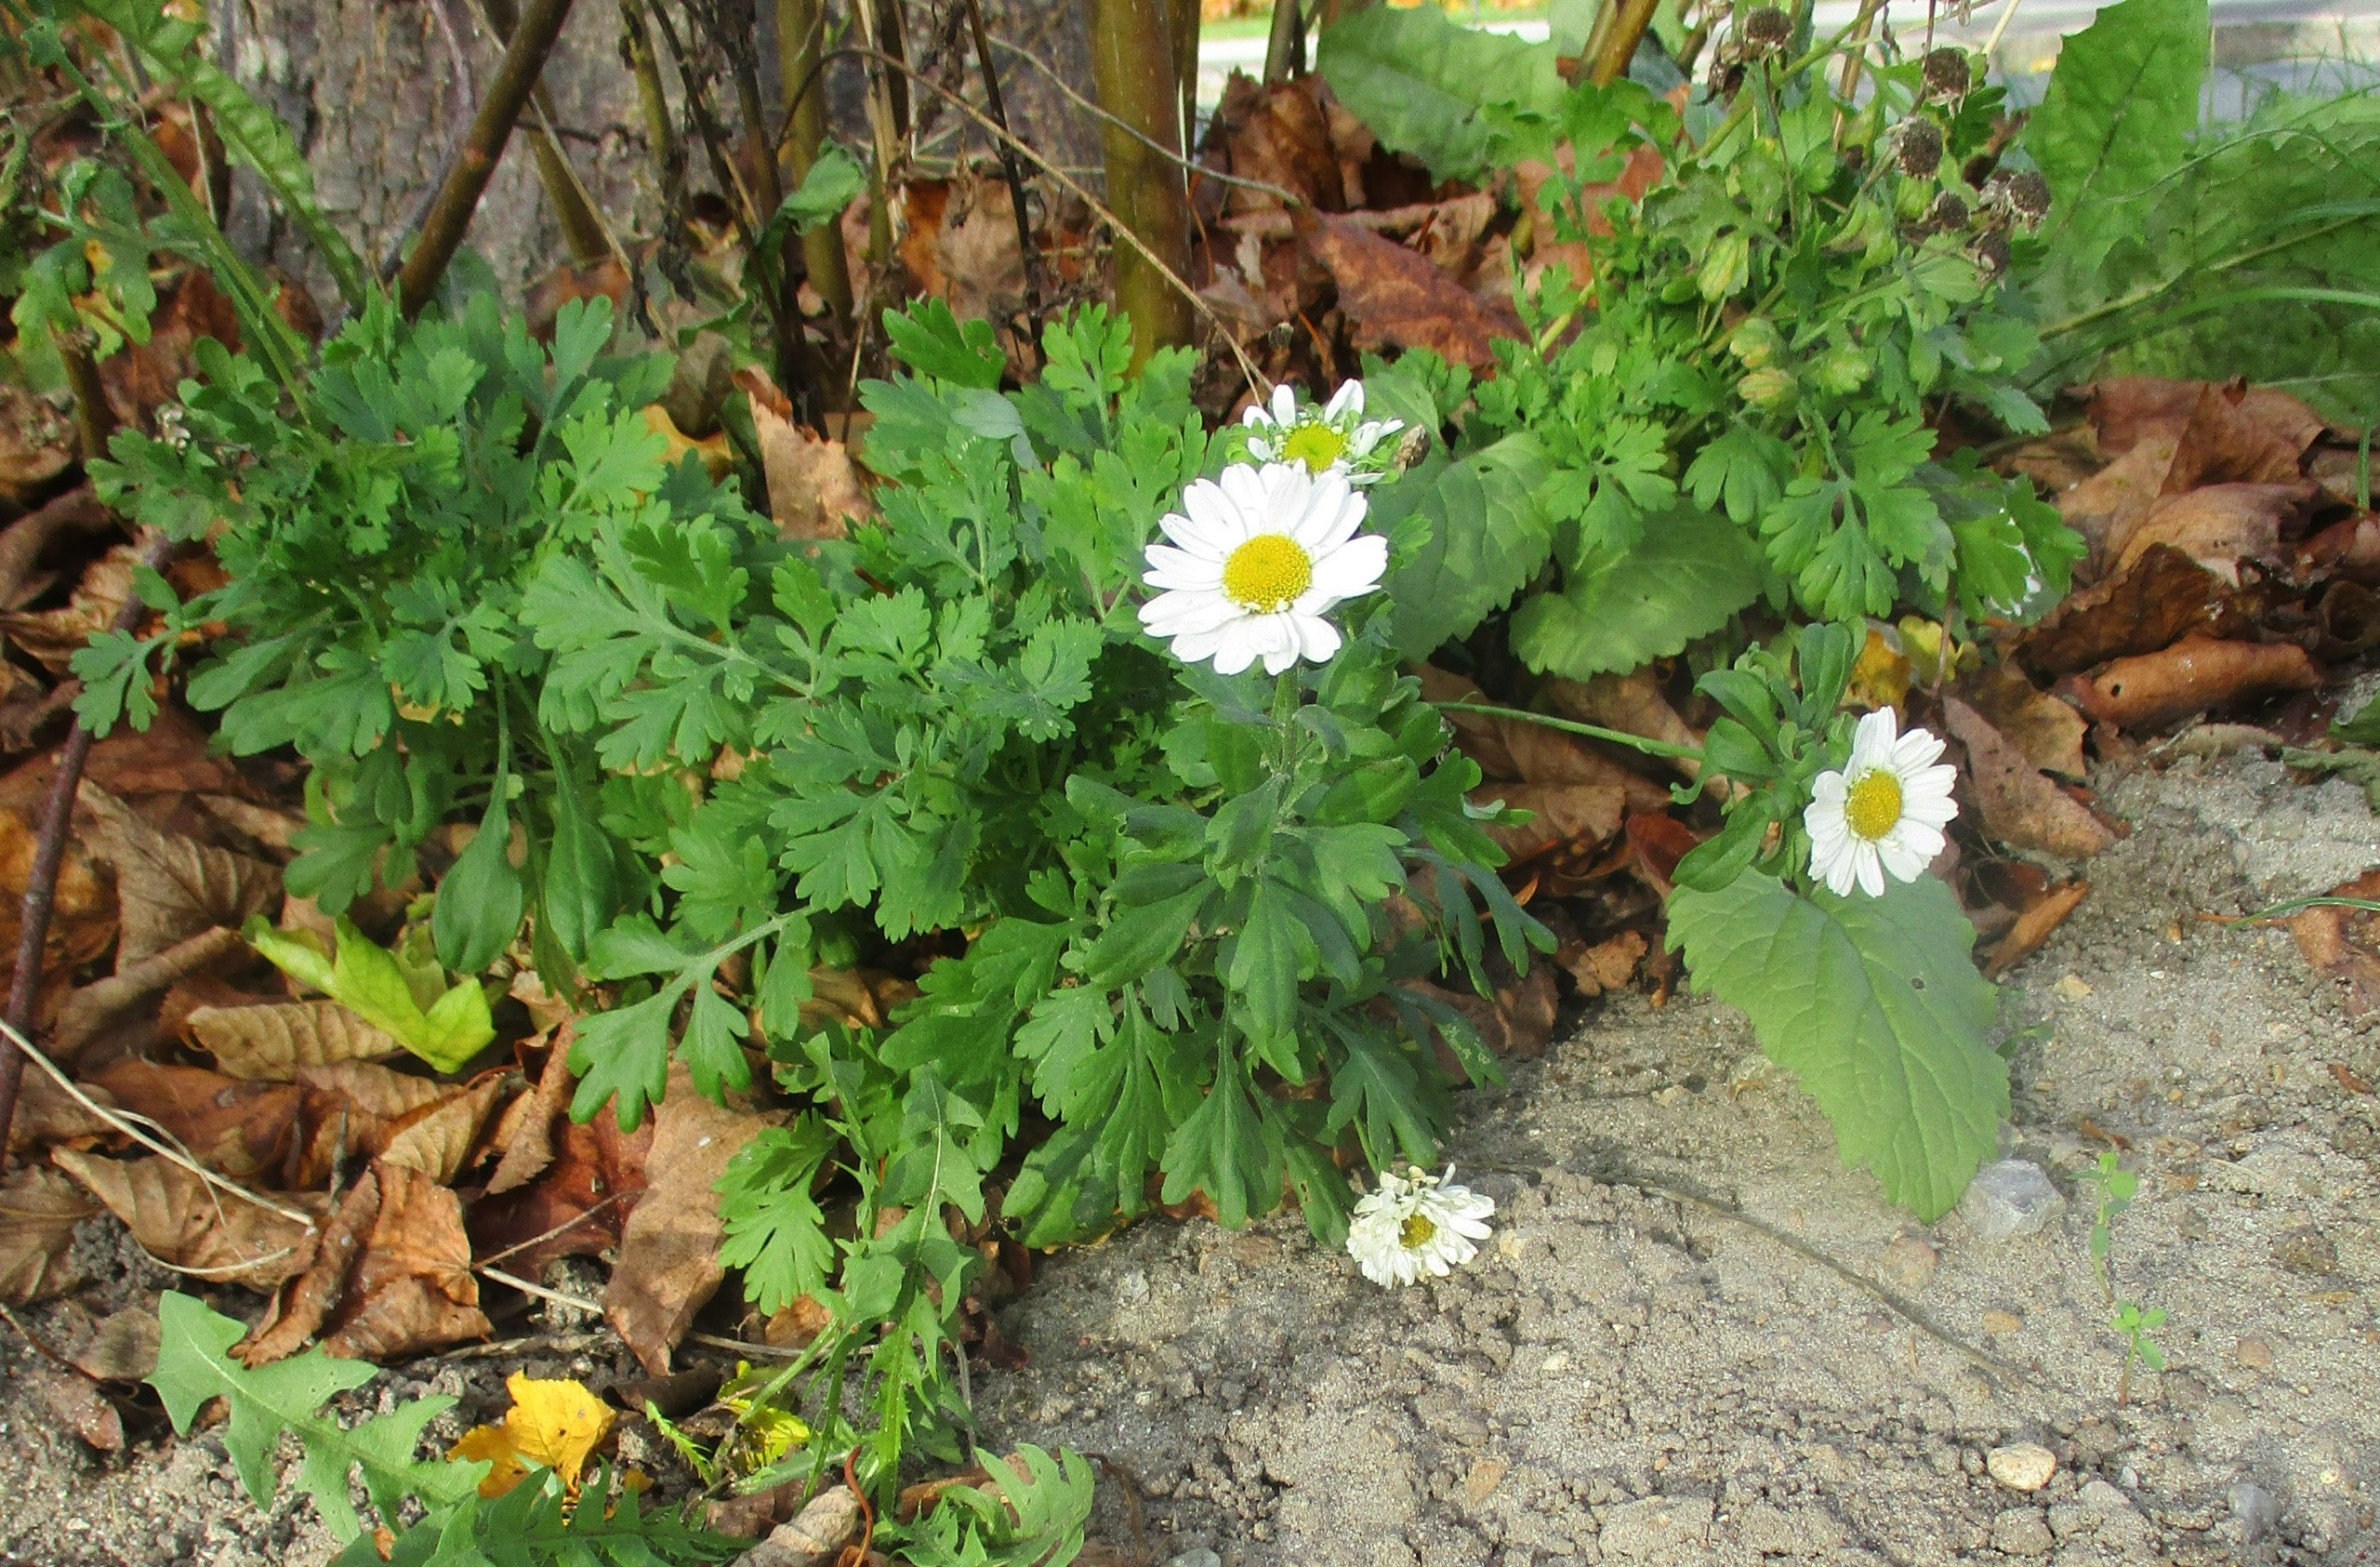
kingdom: Plantae
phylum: Tracheophyta
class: Magnoliopsida
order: Asterales
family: Asteraceae
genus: Tanacetum
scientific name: Tanacetum parthenium
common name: Matrem
